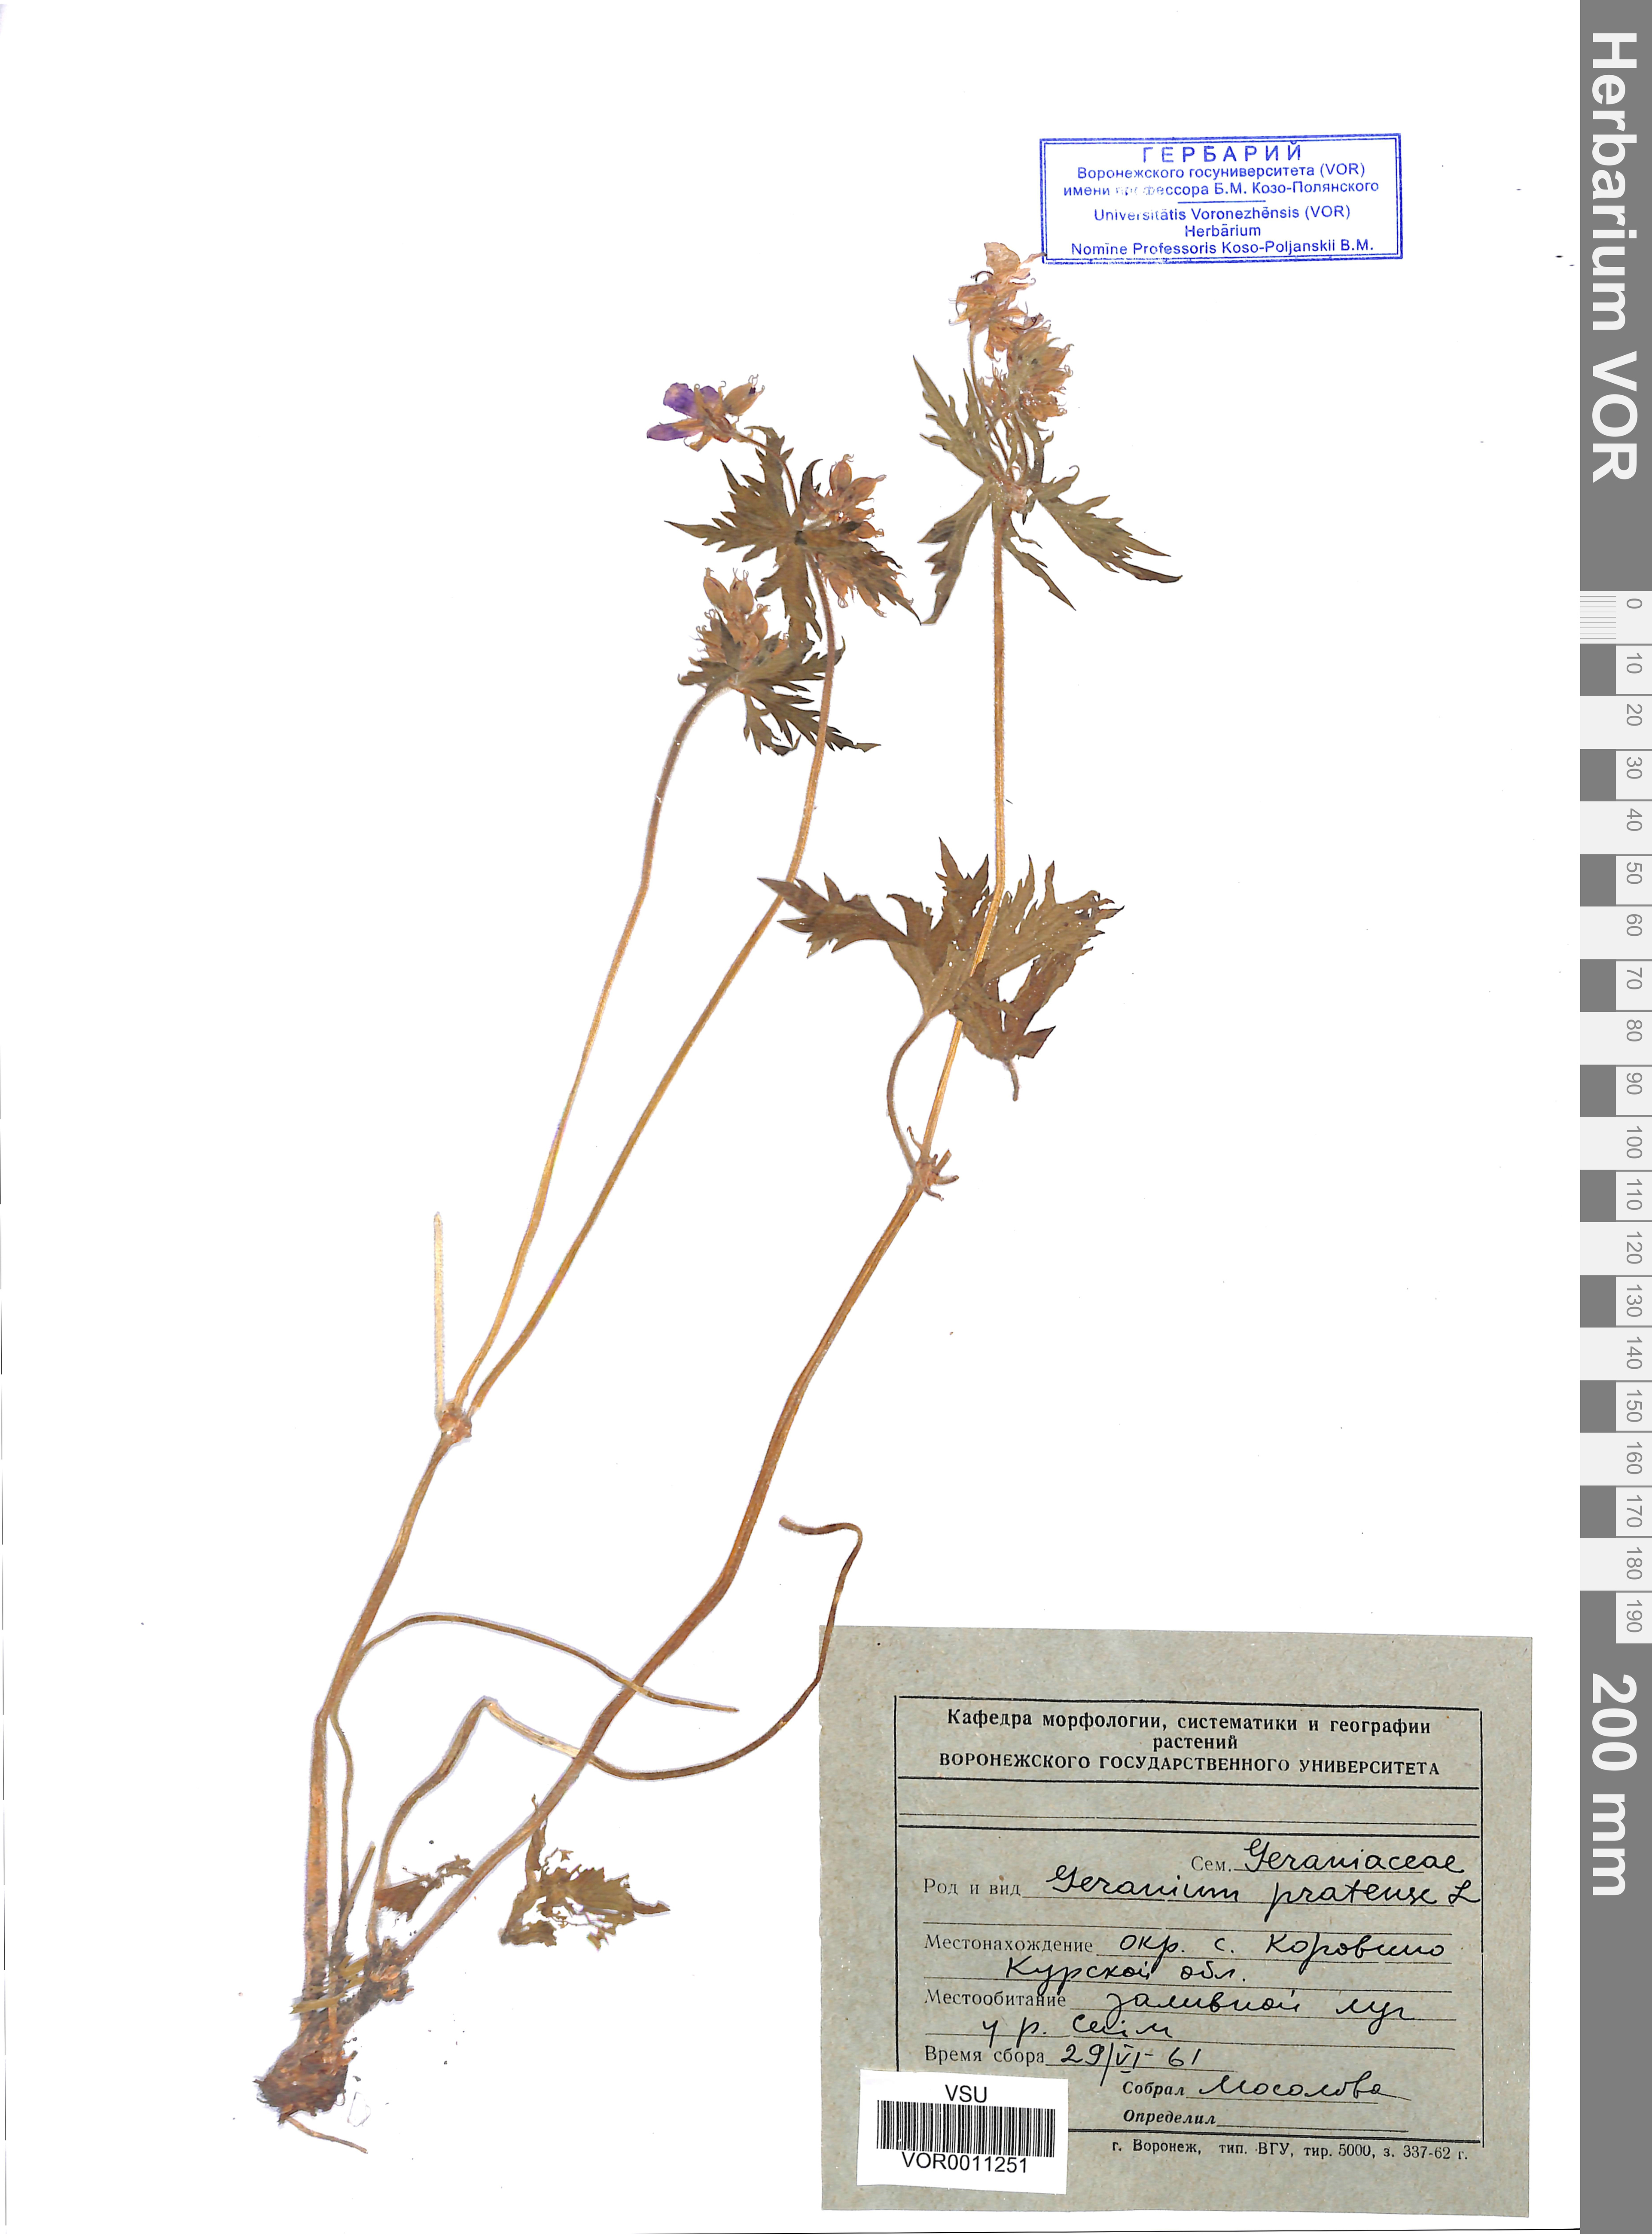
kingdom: Plantae
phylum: Tracheophyta
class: Magnoliopsida
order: Geraniales
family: Geraniaceae
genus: Geranium
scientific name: Geranium pratense
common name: Meadow crane's-bill
